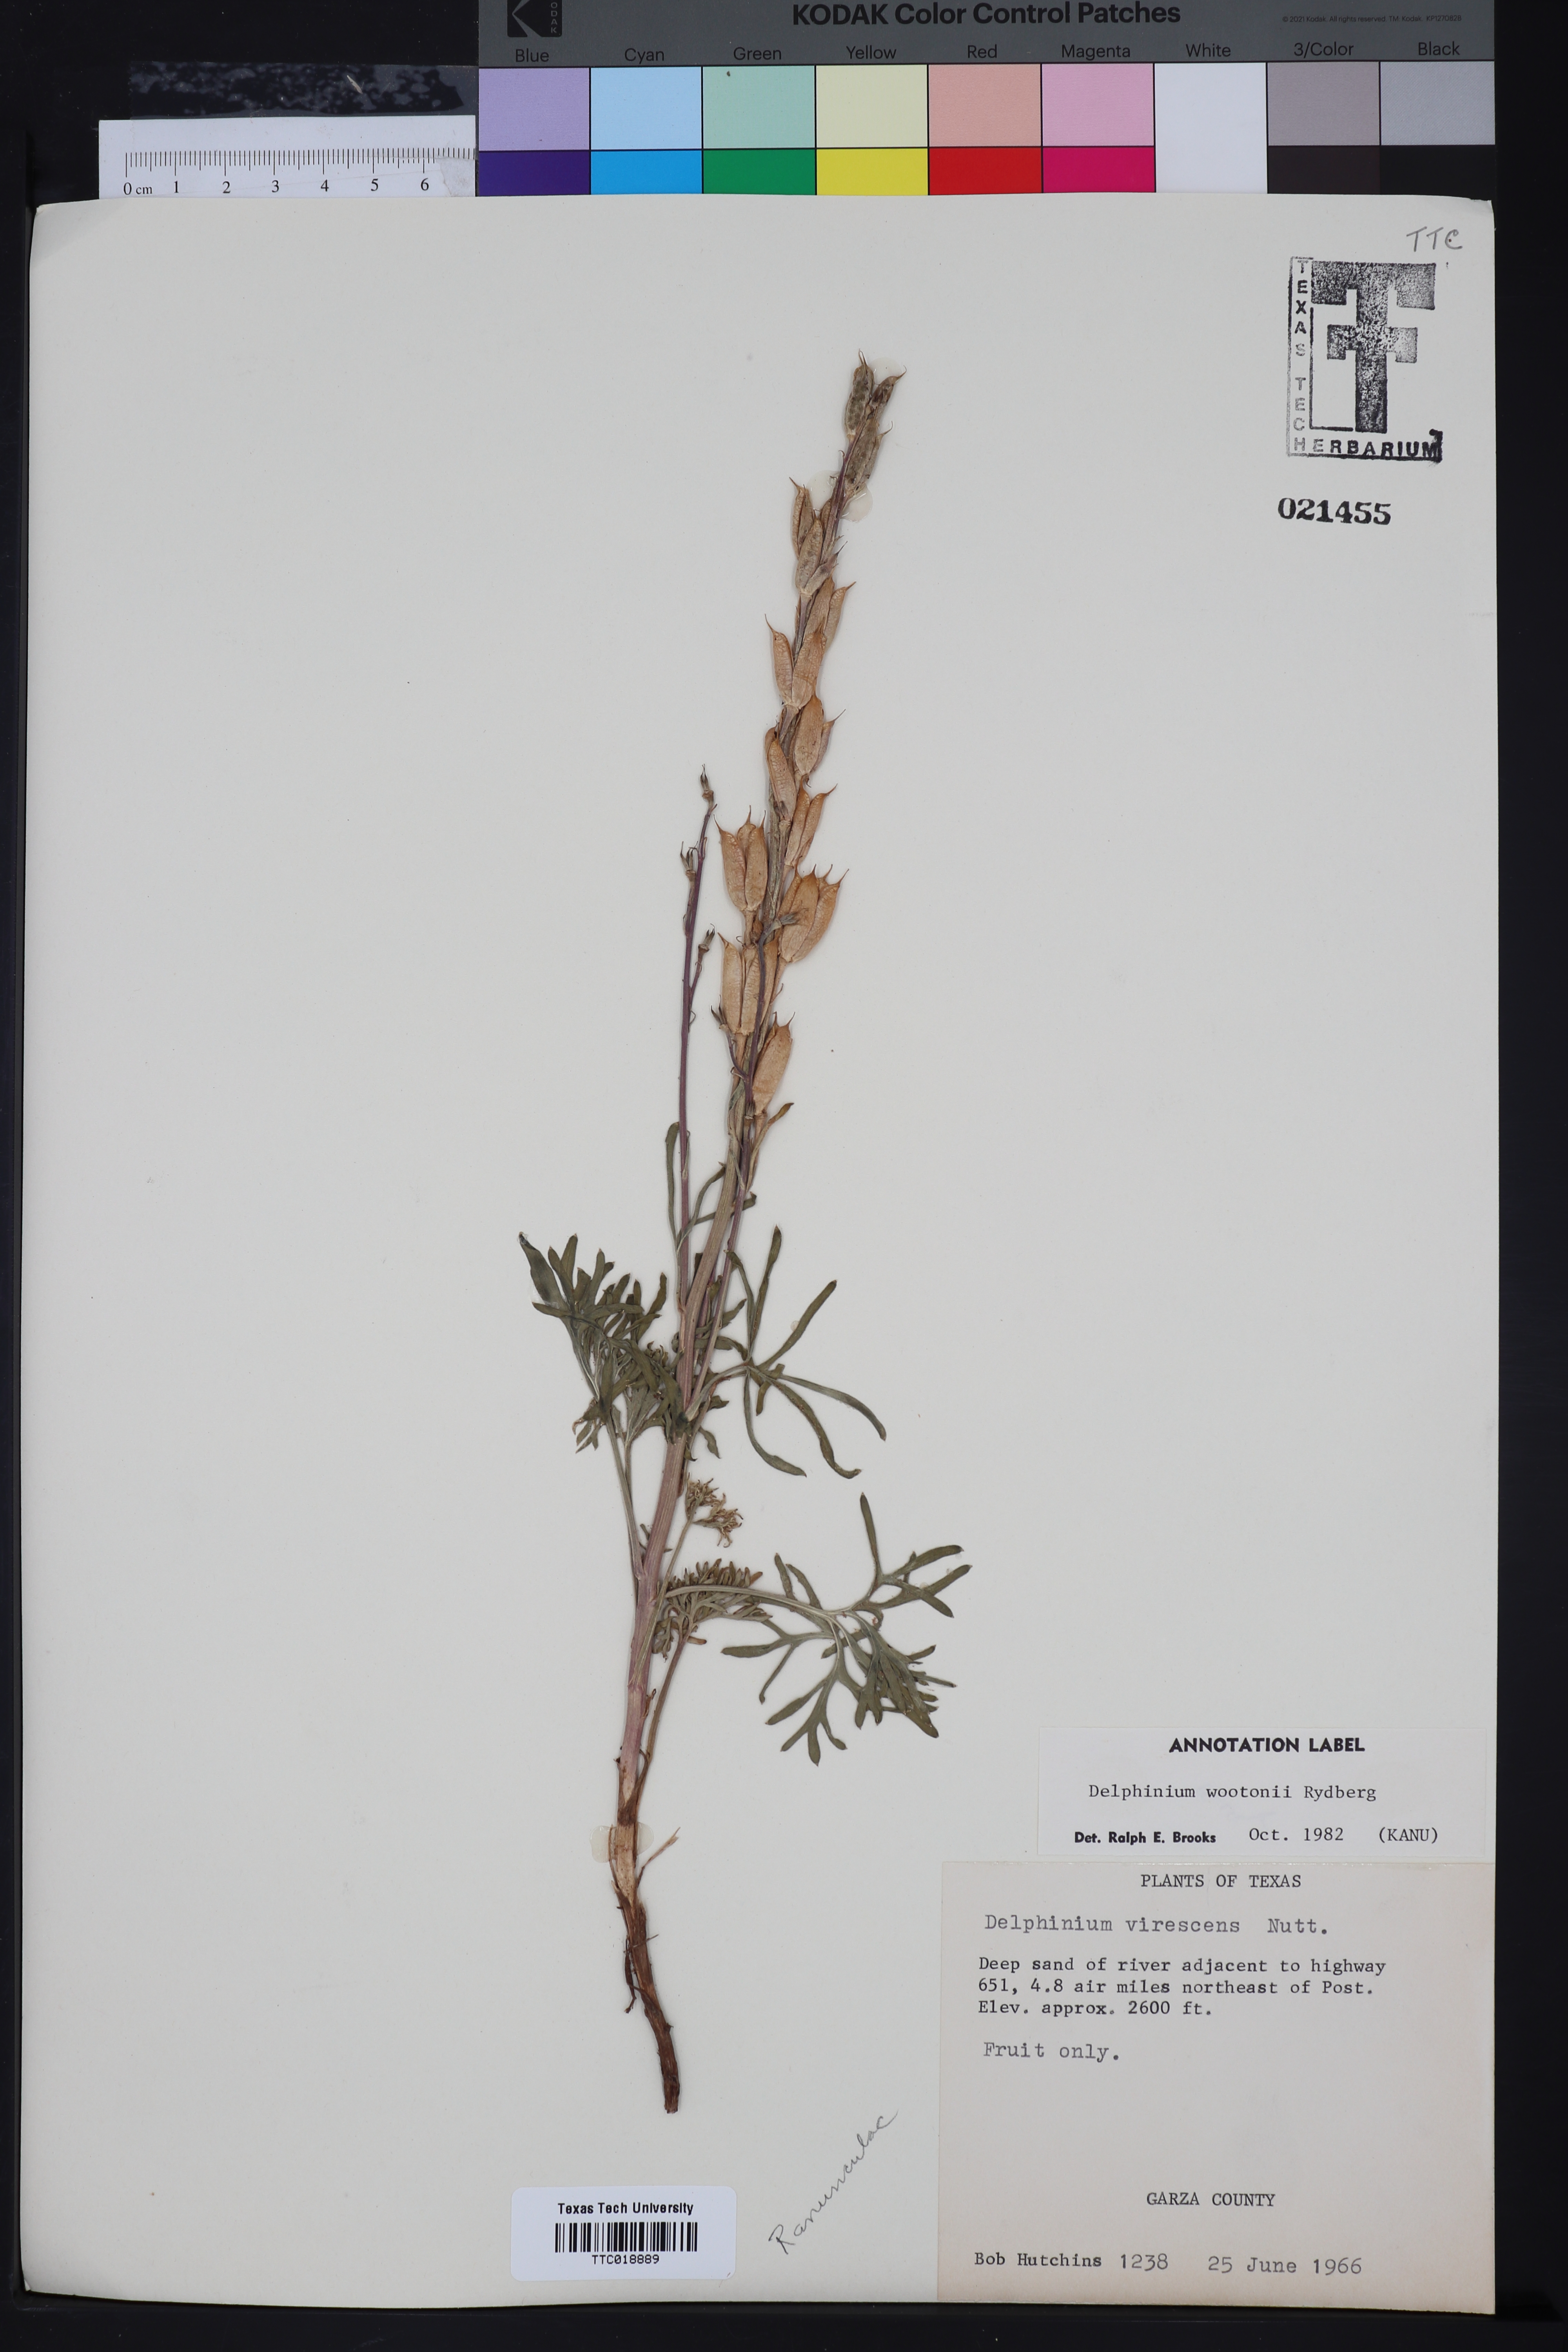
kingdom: Plantae
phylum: Tracheophyta
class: Magnoliopsida
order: Ranunculales
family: Ranunculaceae
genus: Delphinium
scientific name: Delphinium wootonii
